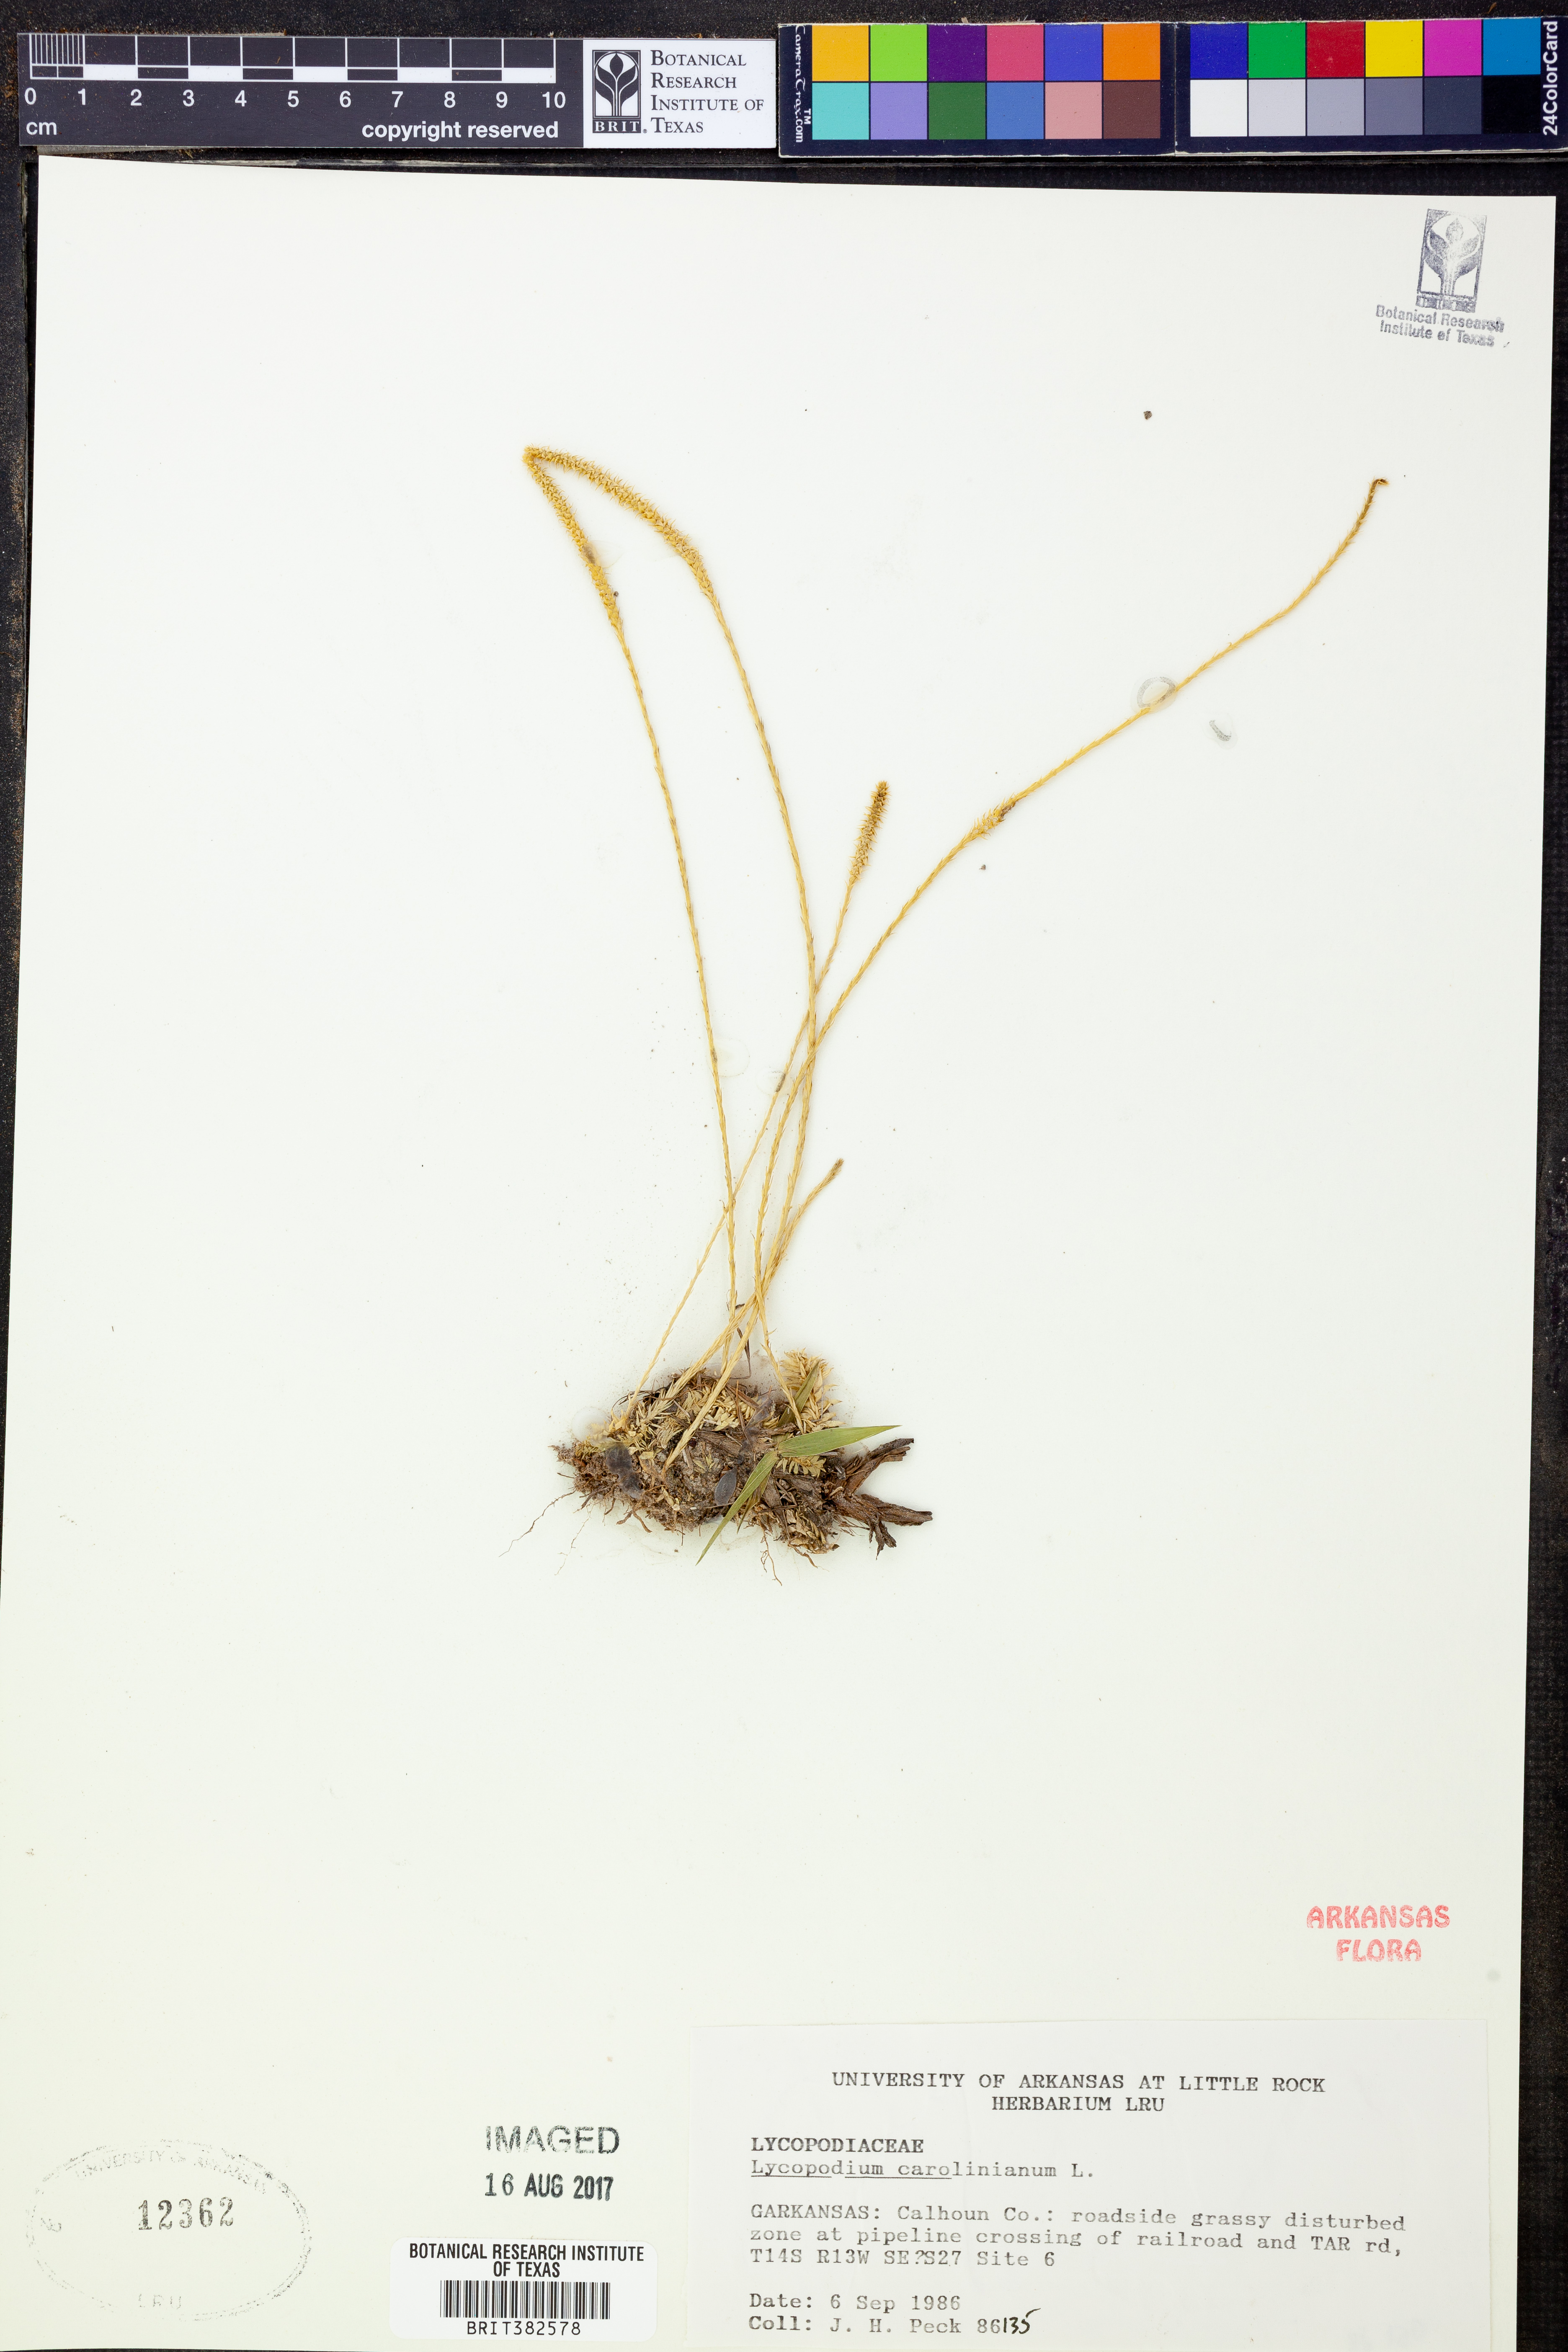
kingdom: Plantae
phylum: Tracheophyta
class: Lycopodiopsida
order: Lycopodiales
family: Lycopodiaceae
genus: Pseudolycopodiella
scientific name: Pseudolycopodiella caroliniana
